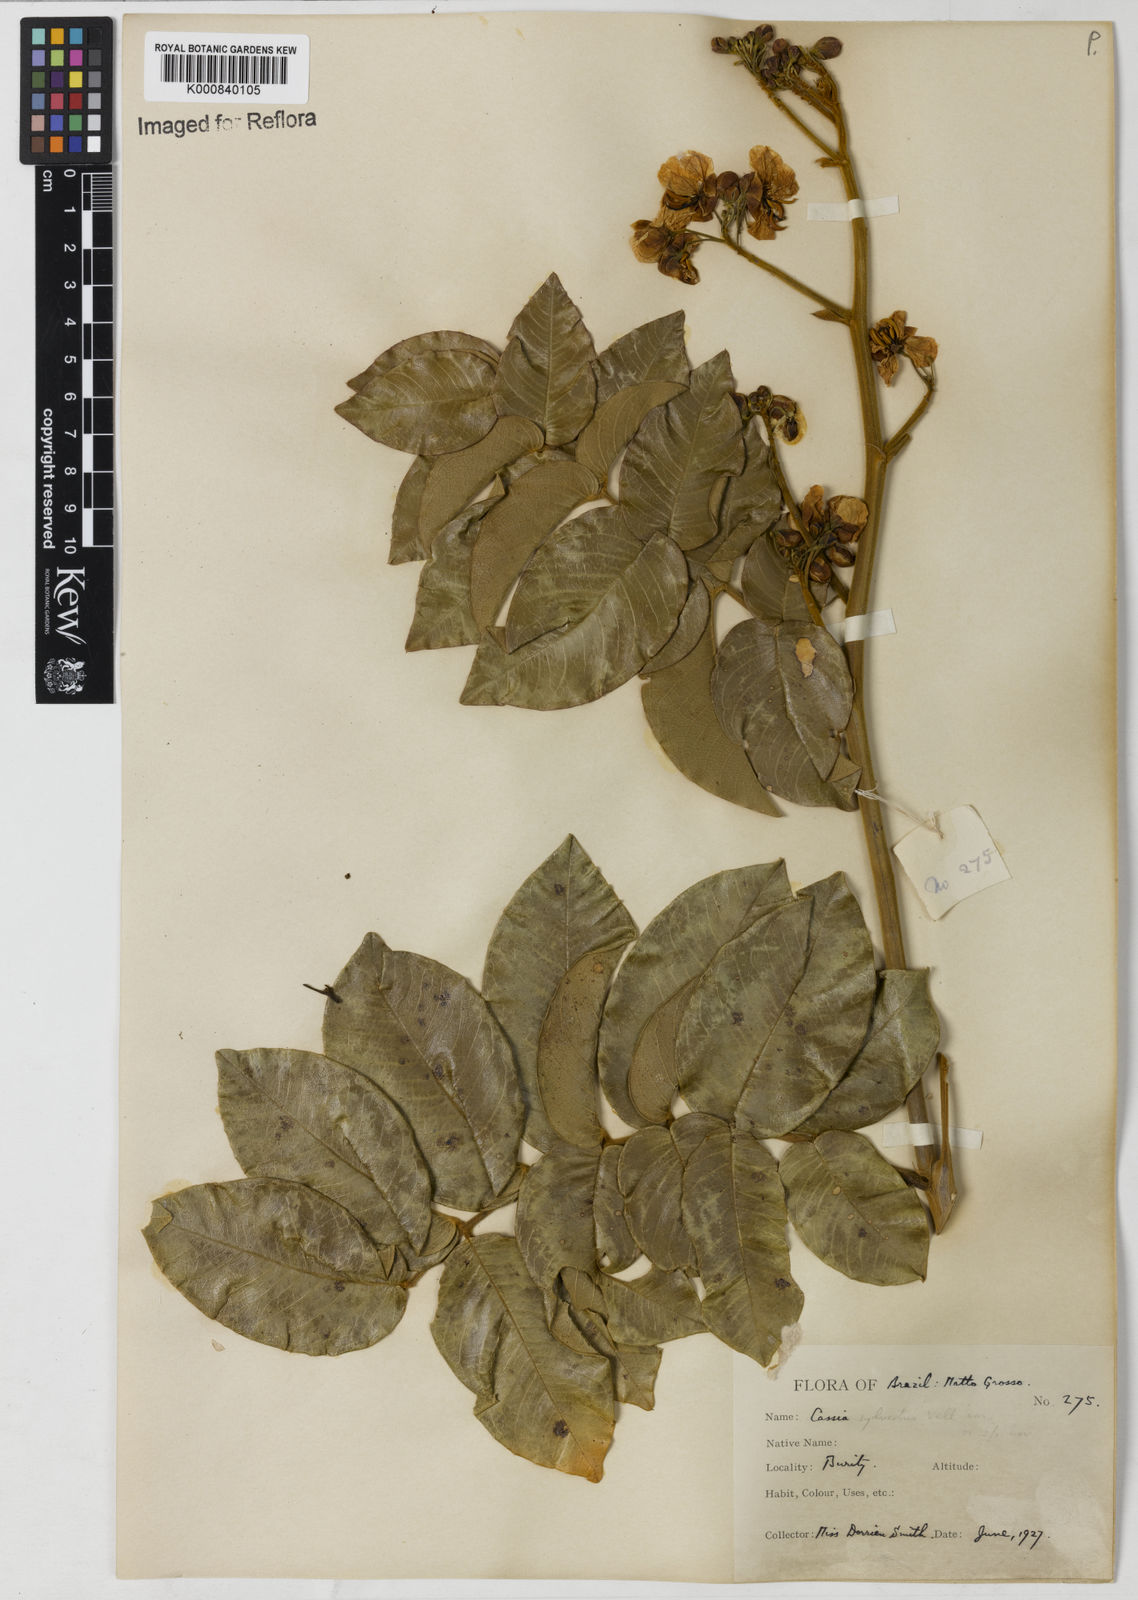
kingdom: Plantae
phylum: Tracheophyta
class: Magnoliopsida
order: Fabales
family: Fabaceae
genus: Senna
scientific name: Senna silvestris
